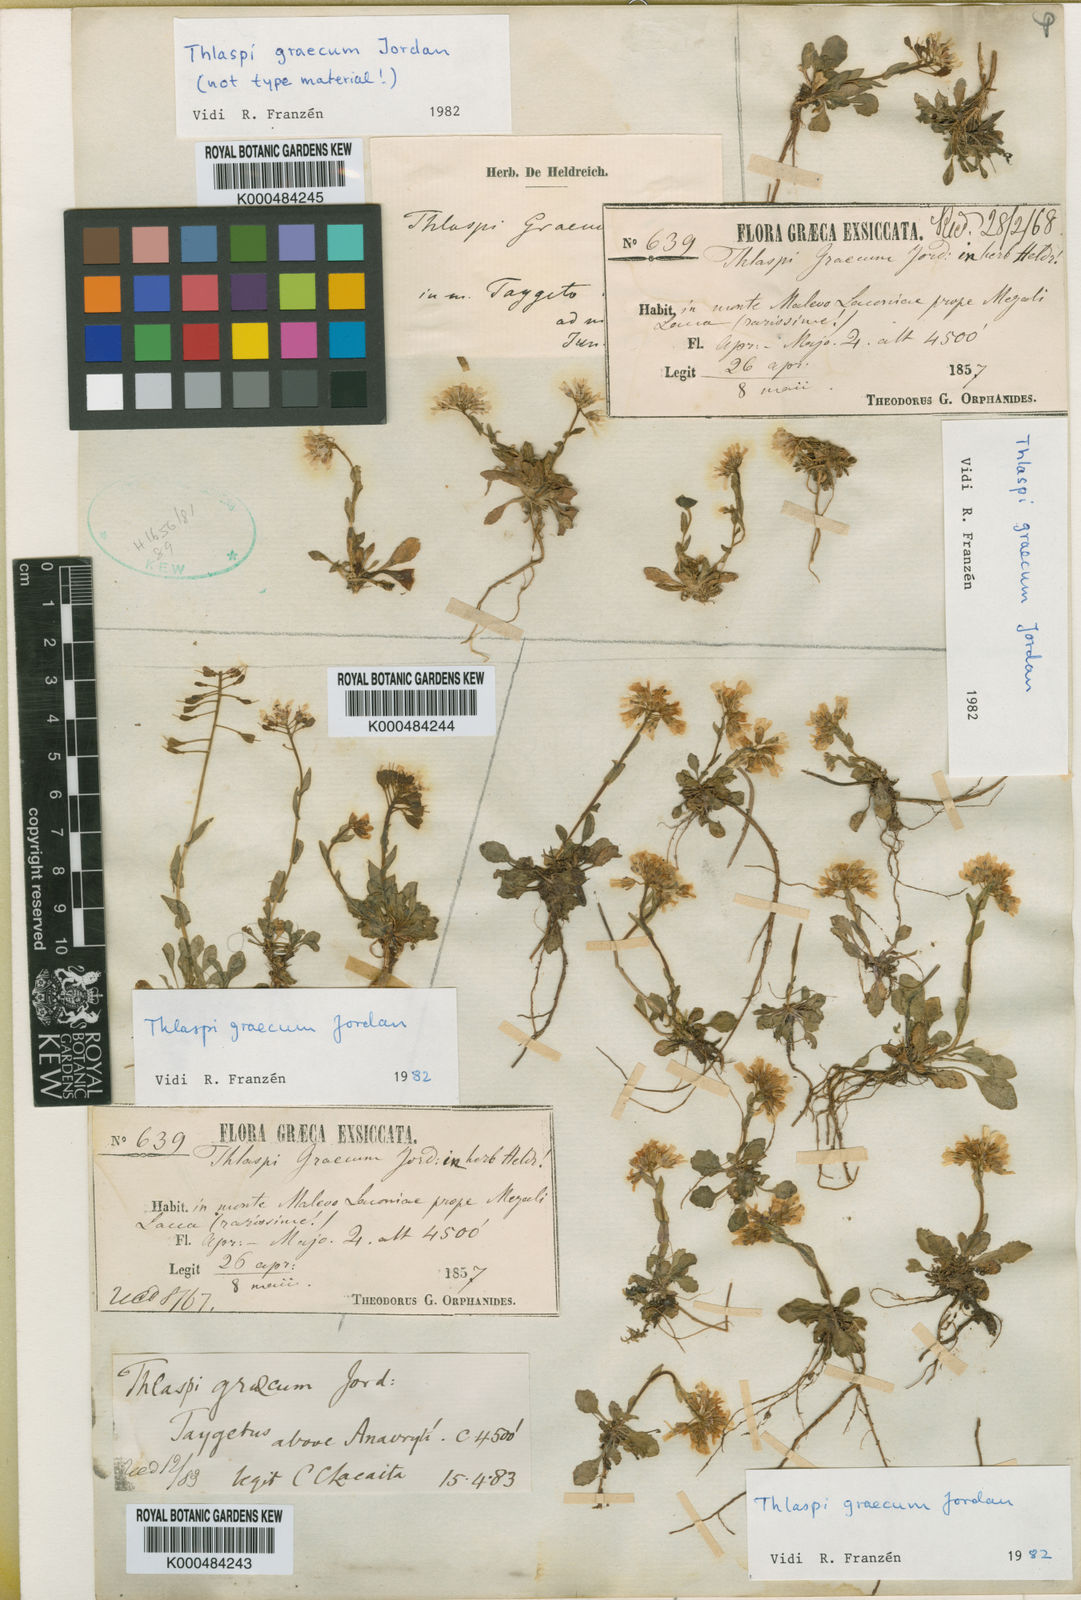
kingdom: Plantae
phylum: Tracheophyta
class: Magnoliopsida
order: Brassicales
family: Brassicaceae
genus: Noccaea
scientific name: Noccaea graeca
